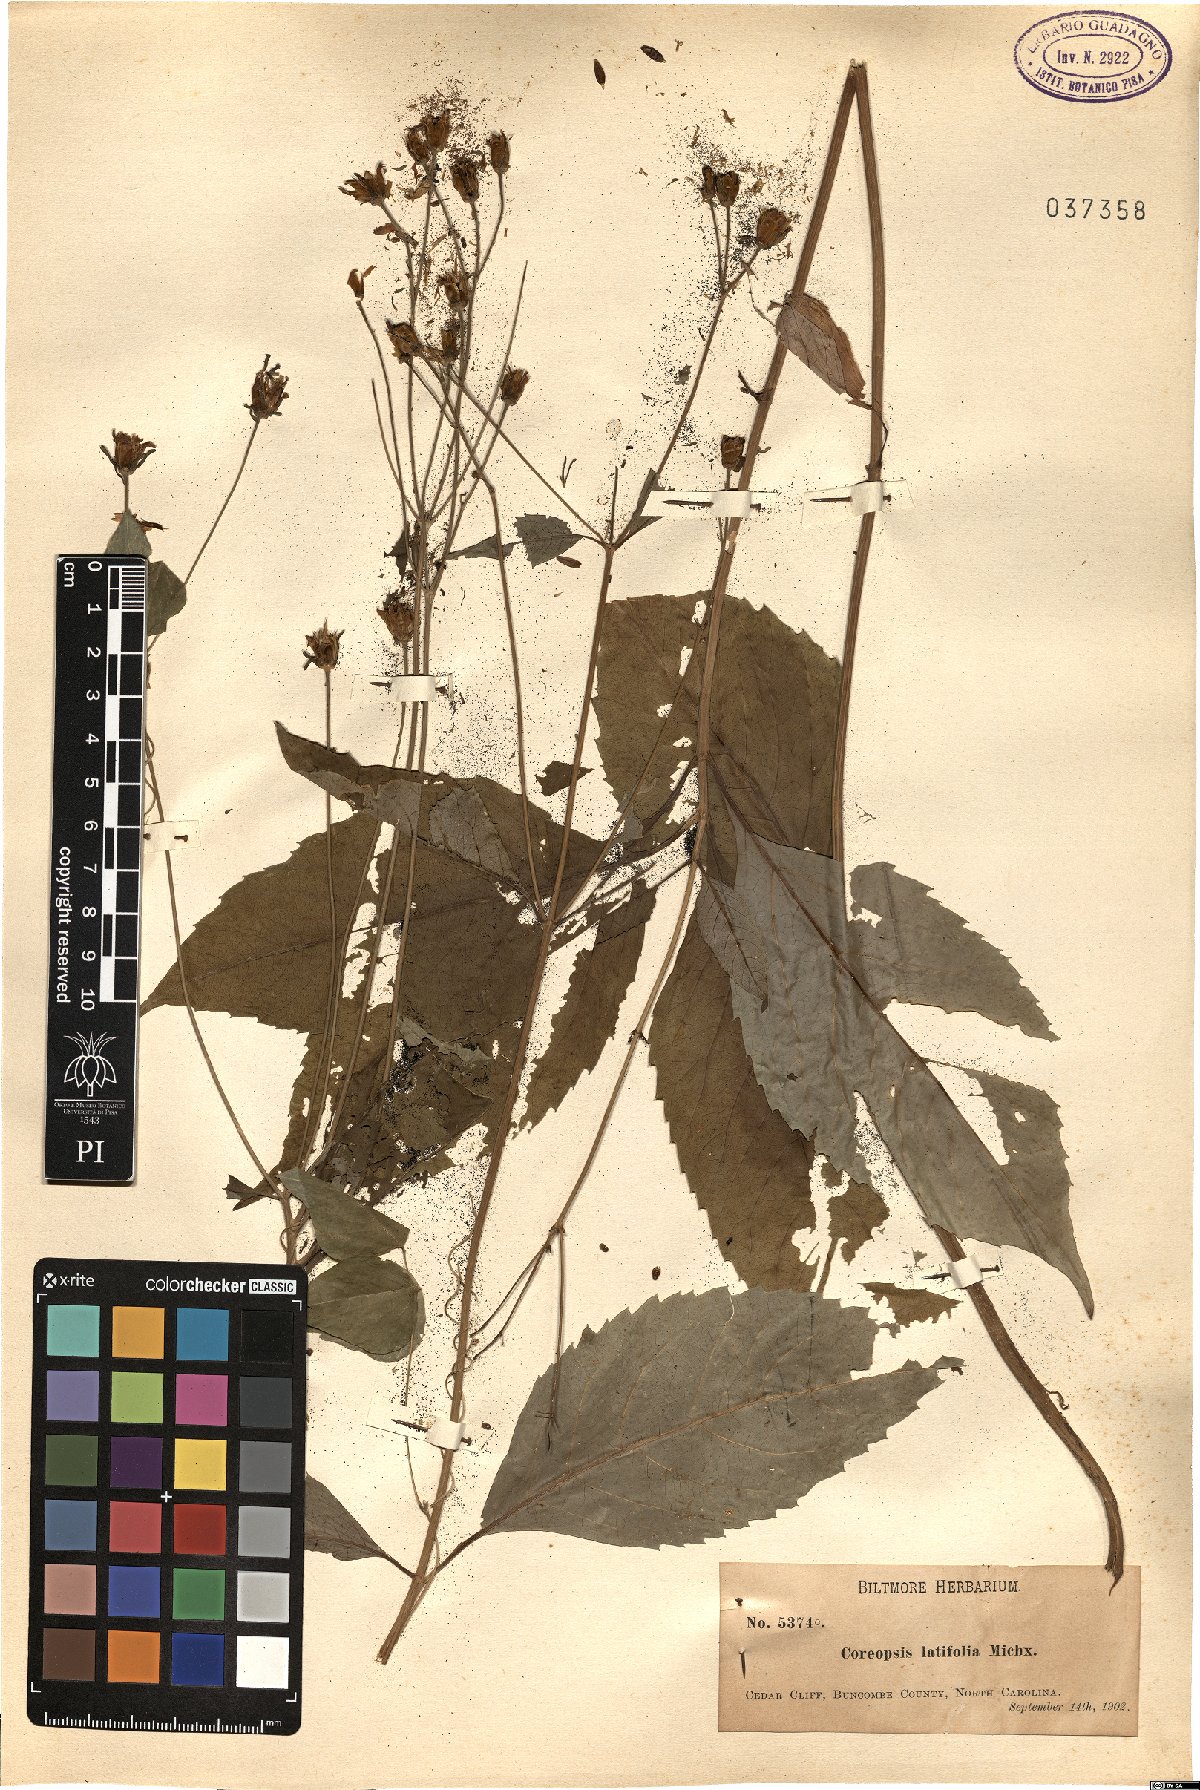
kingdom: Plantae
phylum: Tracheophyta
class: Magnoliopsida
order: Asterales
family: Asteraceae
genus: Coreopsis
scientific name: Coreopsis latifolia
